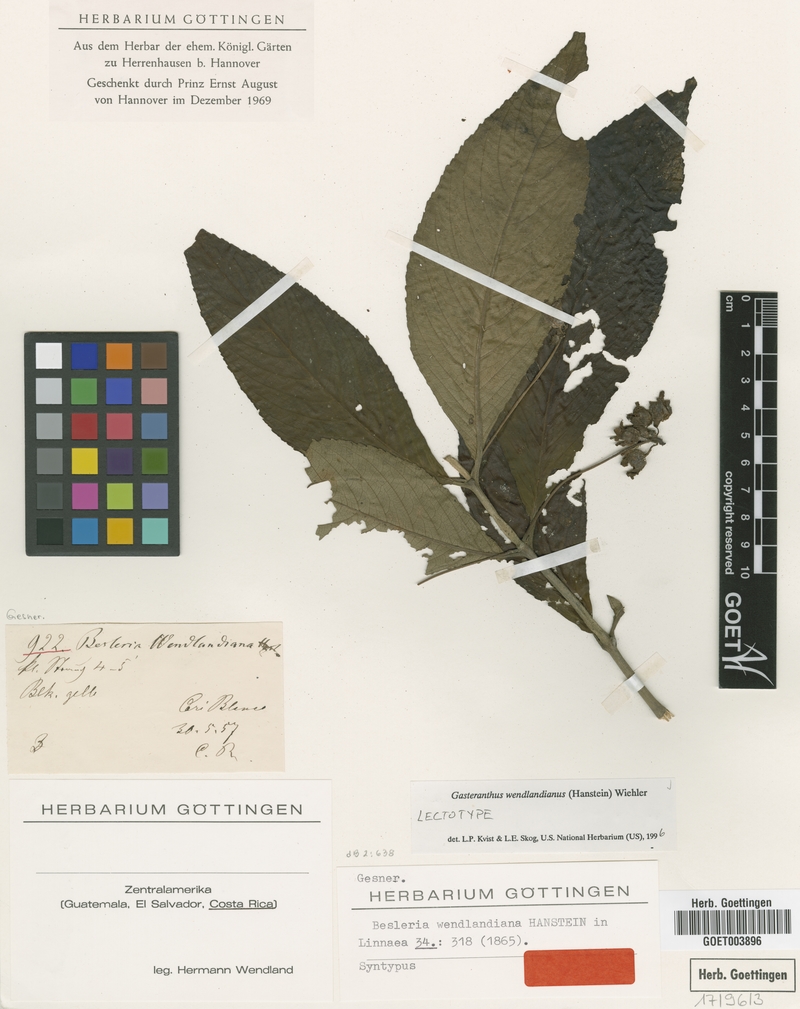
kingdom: Plantae
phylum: Tracheophyta
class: Magnoliopsida
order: Lamiales
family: Gesneriaceae
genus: Gasteranthus
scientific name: Gasteranthus wendlandianus
